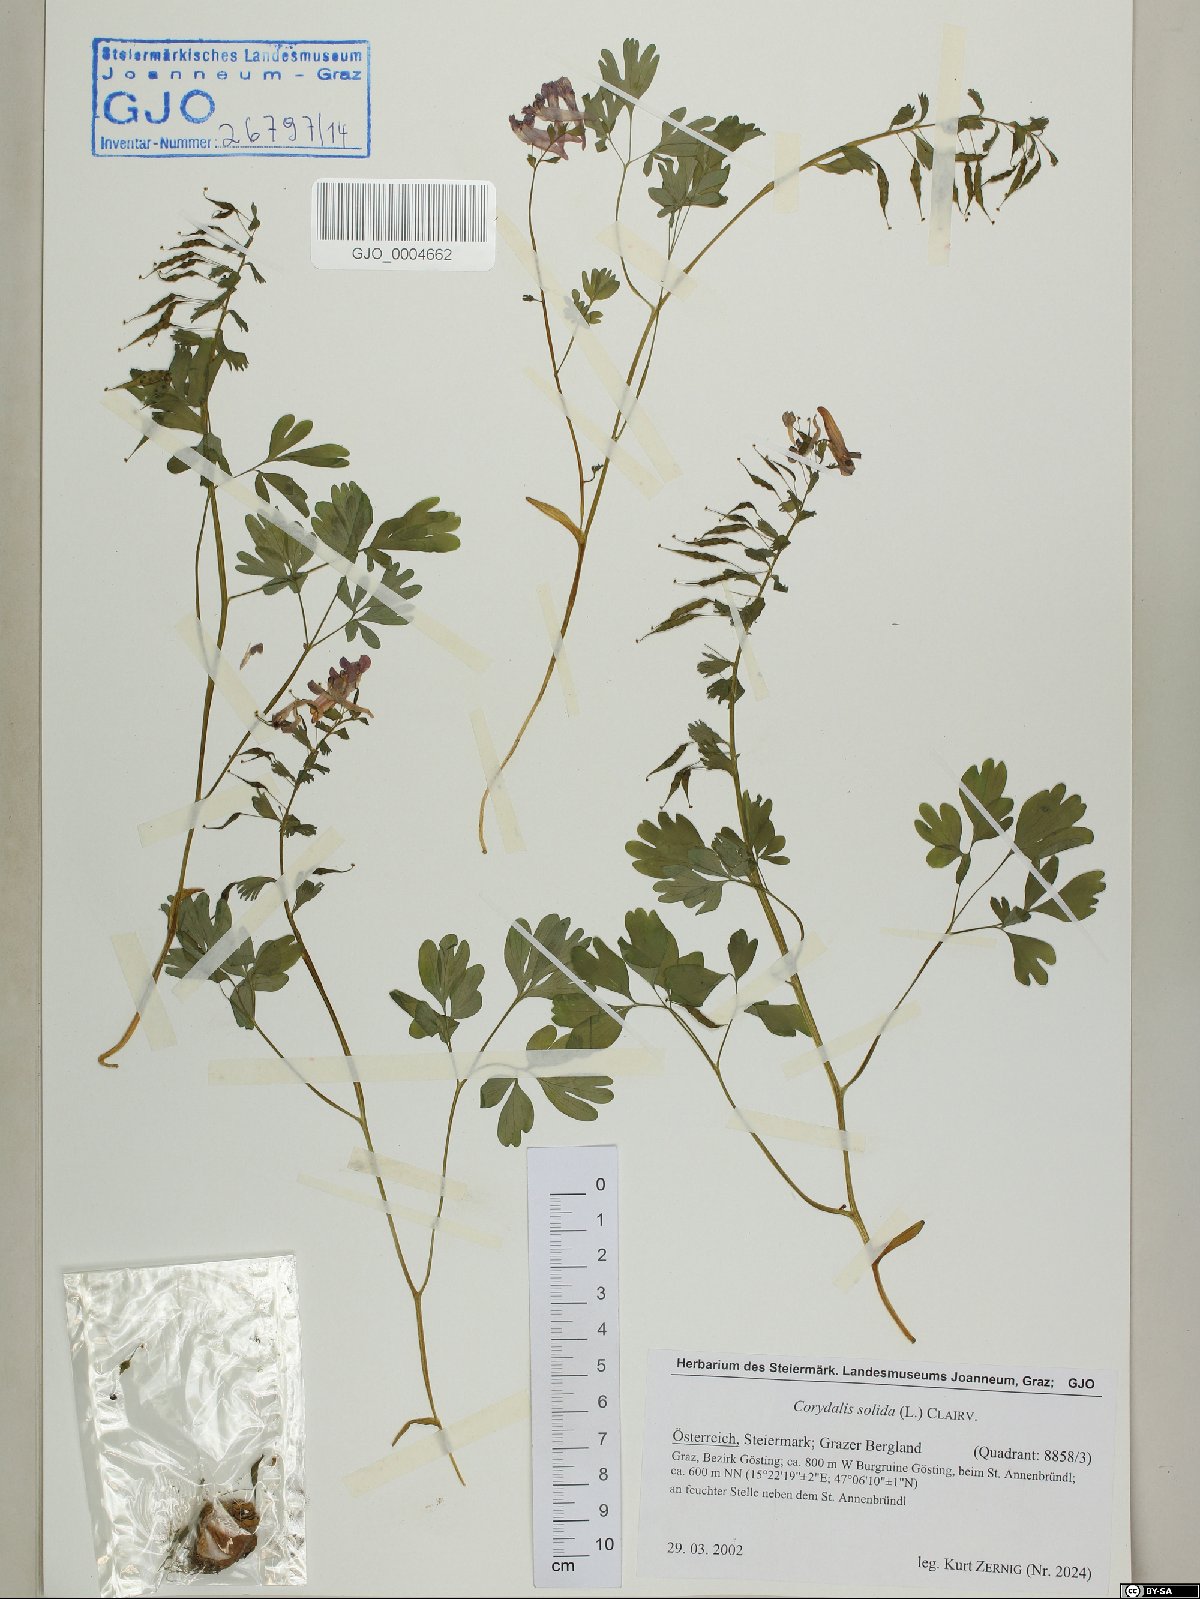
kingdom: Plantae
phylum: Tracheophyta
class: Magnoliopsida
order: Ranunculales
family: Papaveraceae
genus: Corydalis
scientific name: Corydalis solida
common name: Bird-in-a-bush
